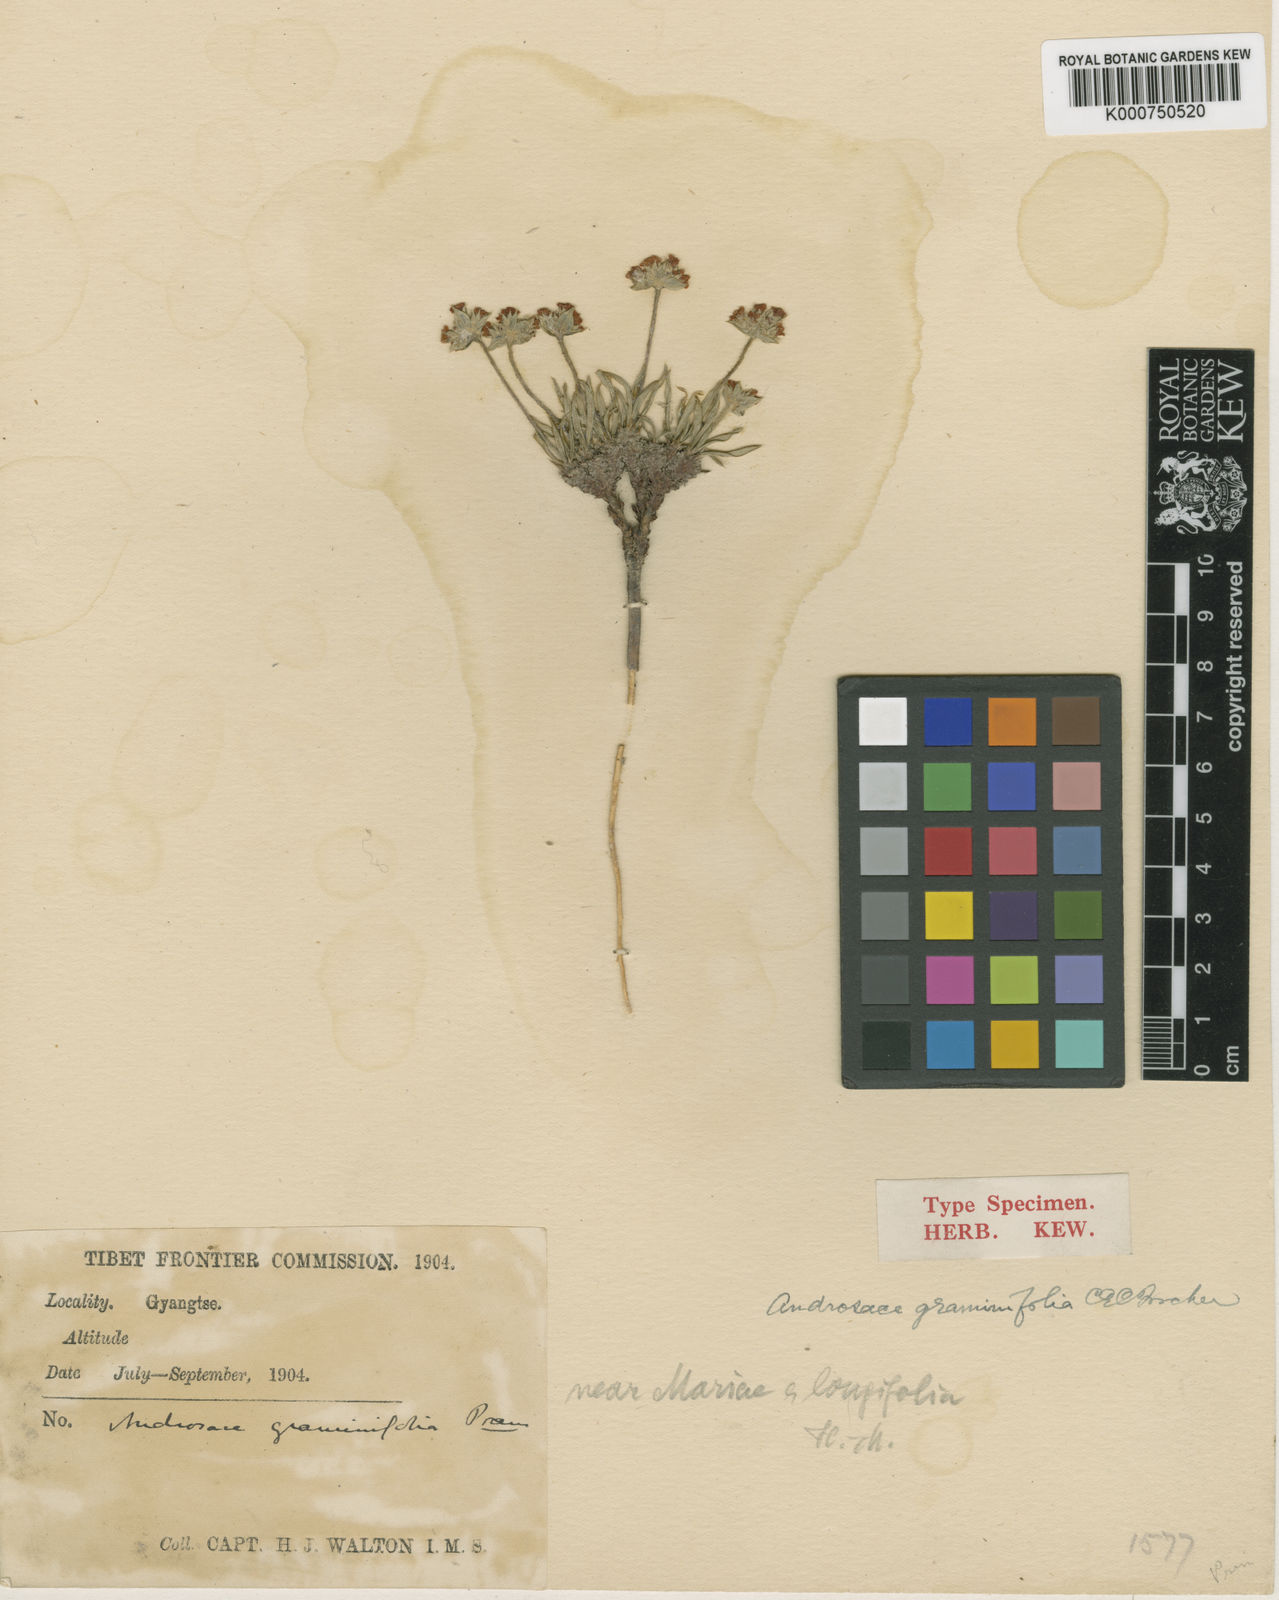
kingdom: Plantae
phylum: Tracheophyta
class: Magnoliopsida
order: Ericales
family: Primulaceae
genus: Androsace
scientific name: Androsace
